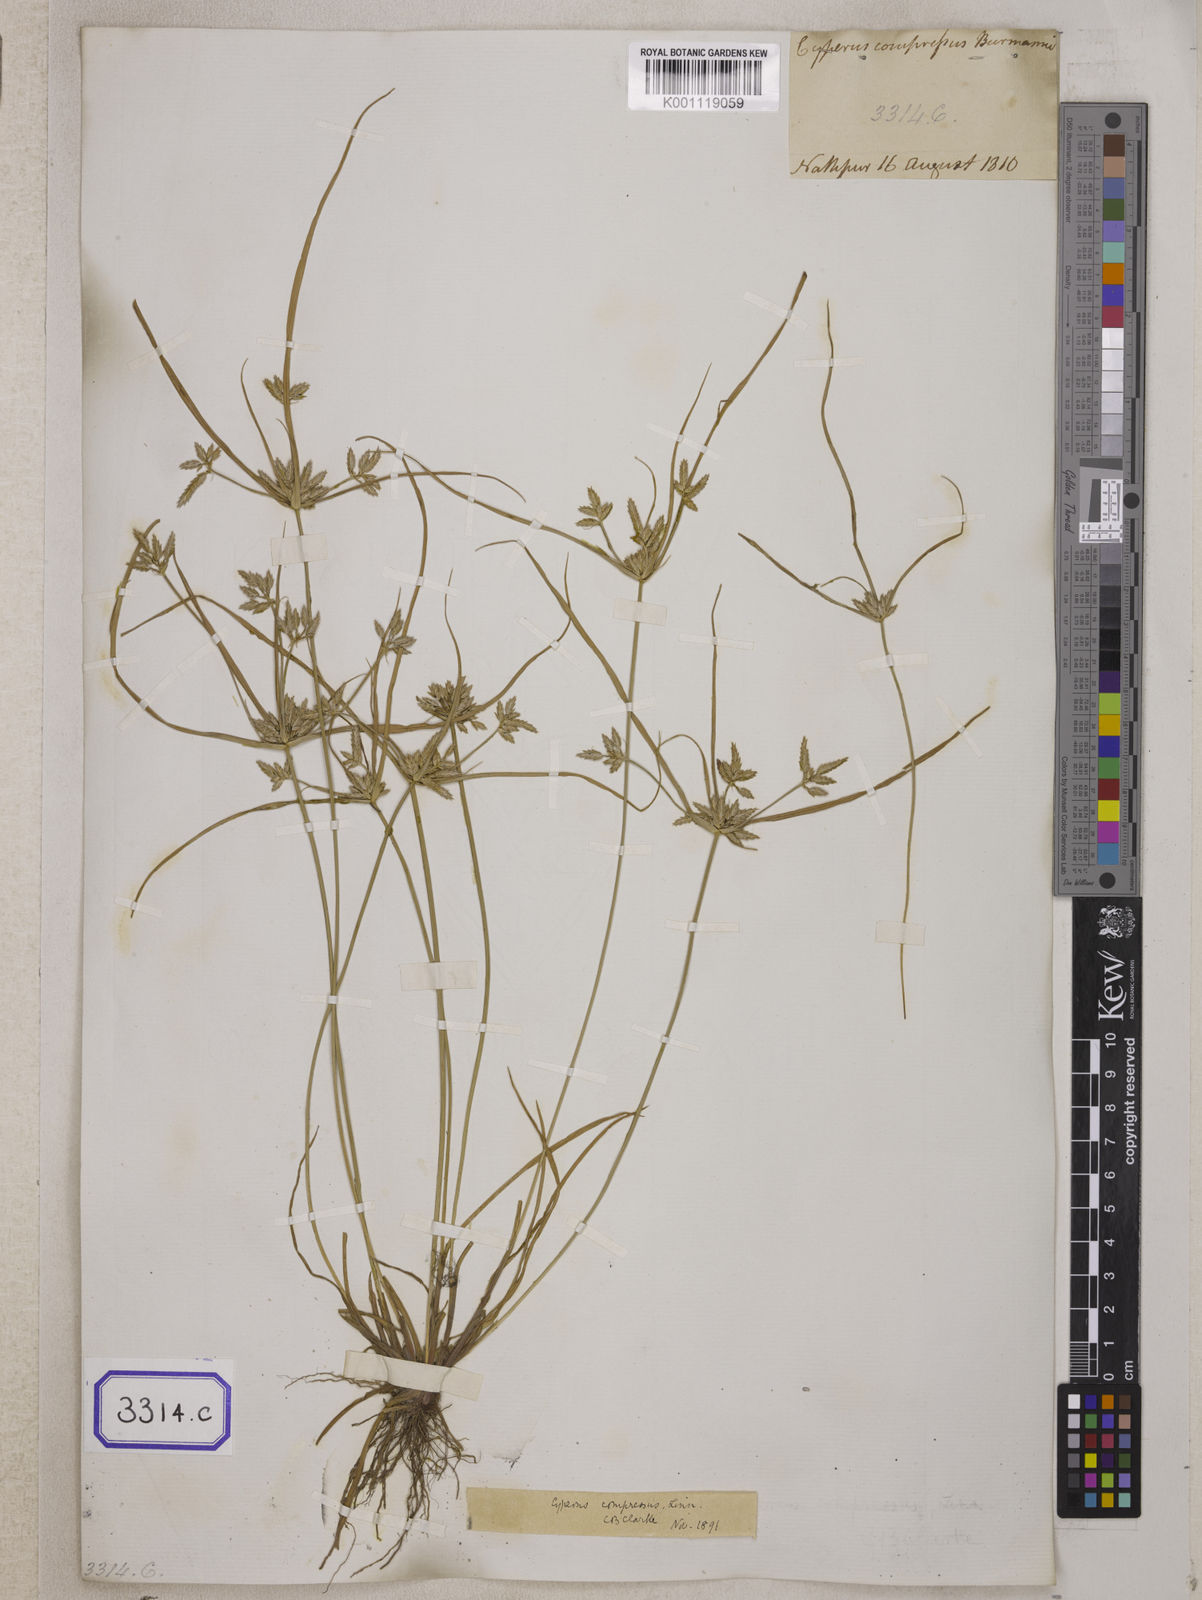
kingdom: Plantae
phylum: Tracheophyta
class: Liliopsida
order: Poales
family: Cyperaceae
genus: Cyperus
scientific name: Cyperus
